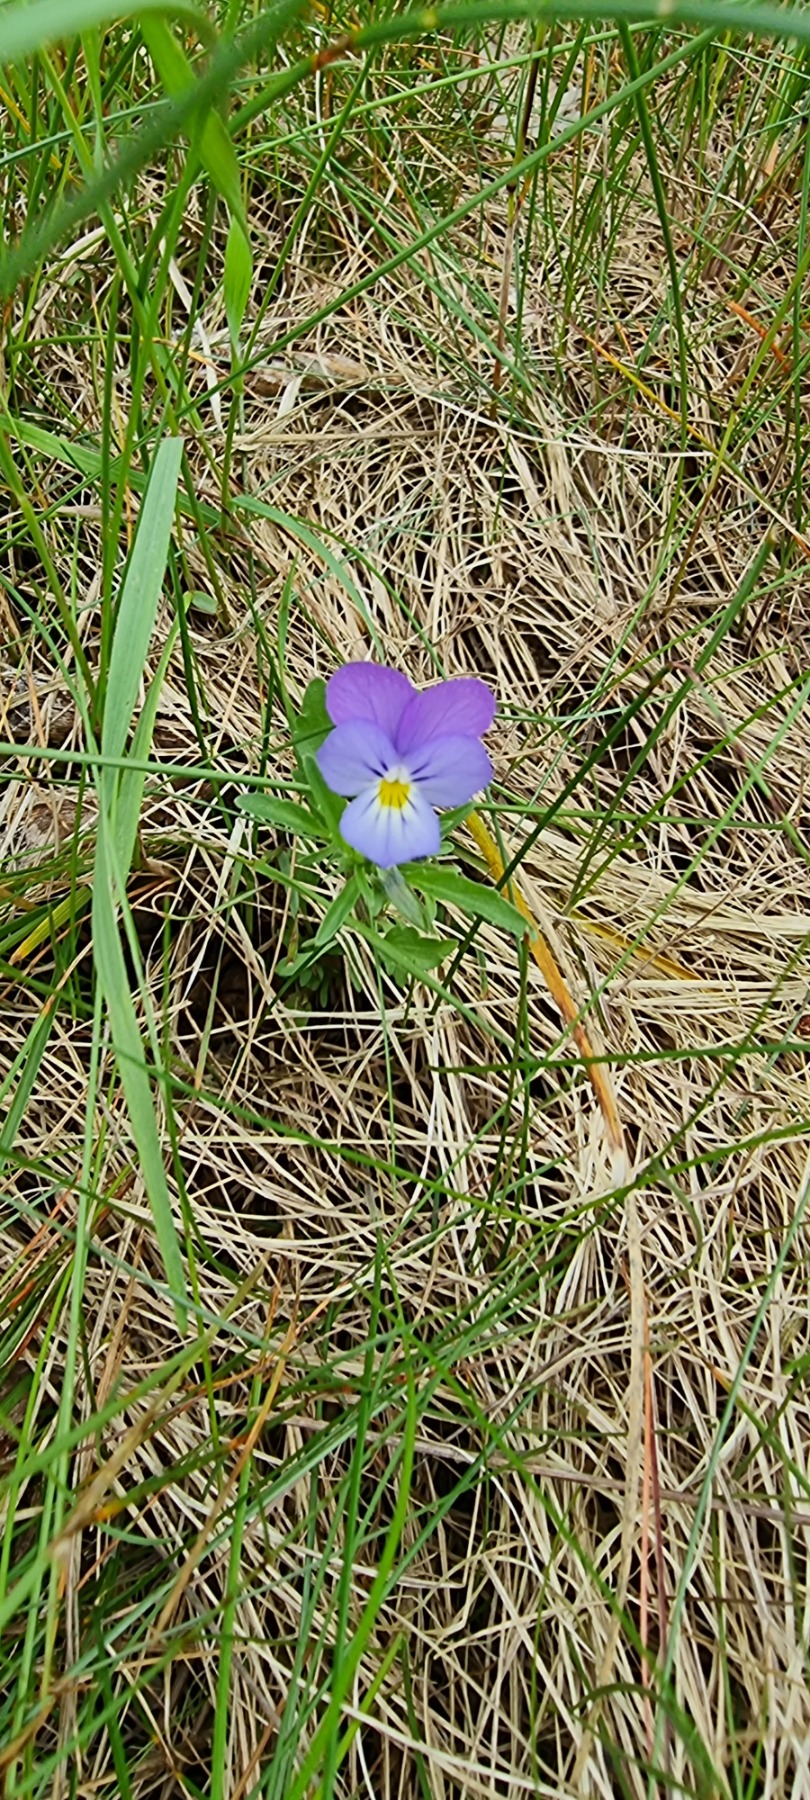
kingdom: Plantae
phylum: Tracheophyta
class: Magnoliopsida
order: Malpighiales
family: Violaceae
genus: Viola
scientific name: Viola tricolor
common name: Stedmoderblomst
